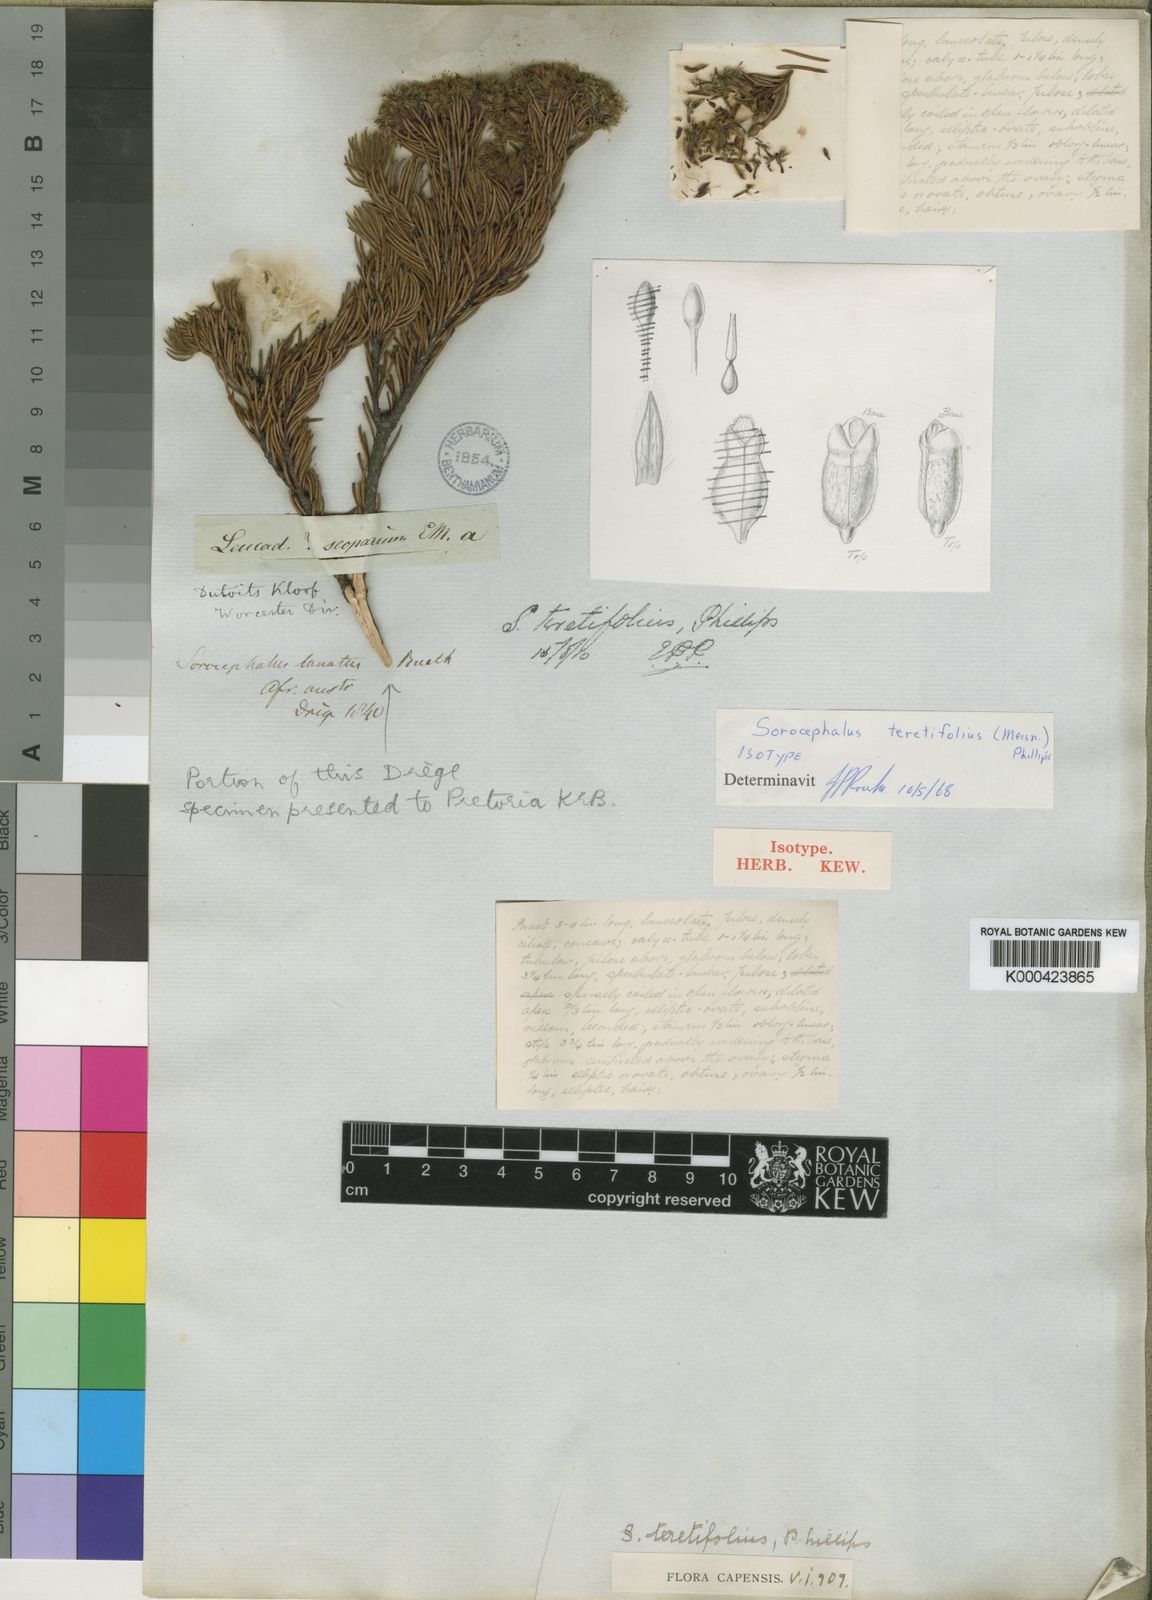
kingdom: Plantae
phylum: Tracheophyta
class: Magnoliopsida
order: Proteales
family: Proteaceae
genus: Sorocephalus
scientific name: Sorocephalus teretifolius
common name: Pinhead clusterhead
